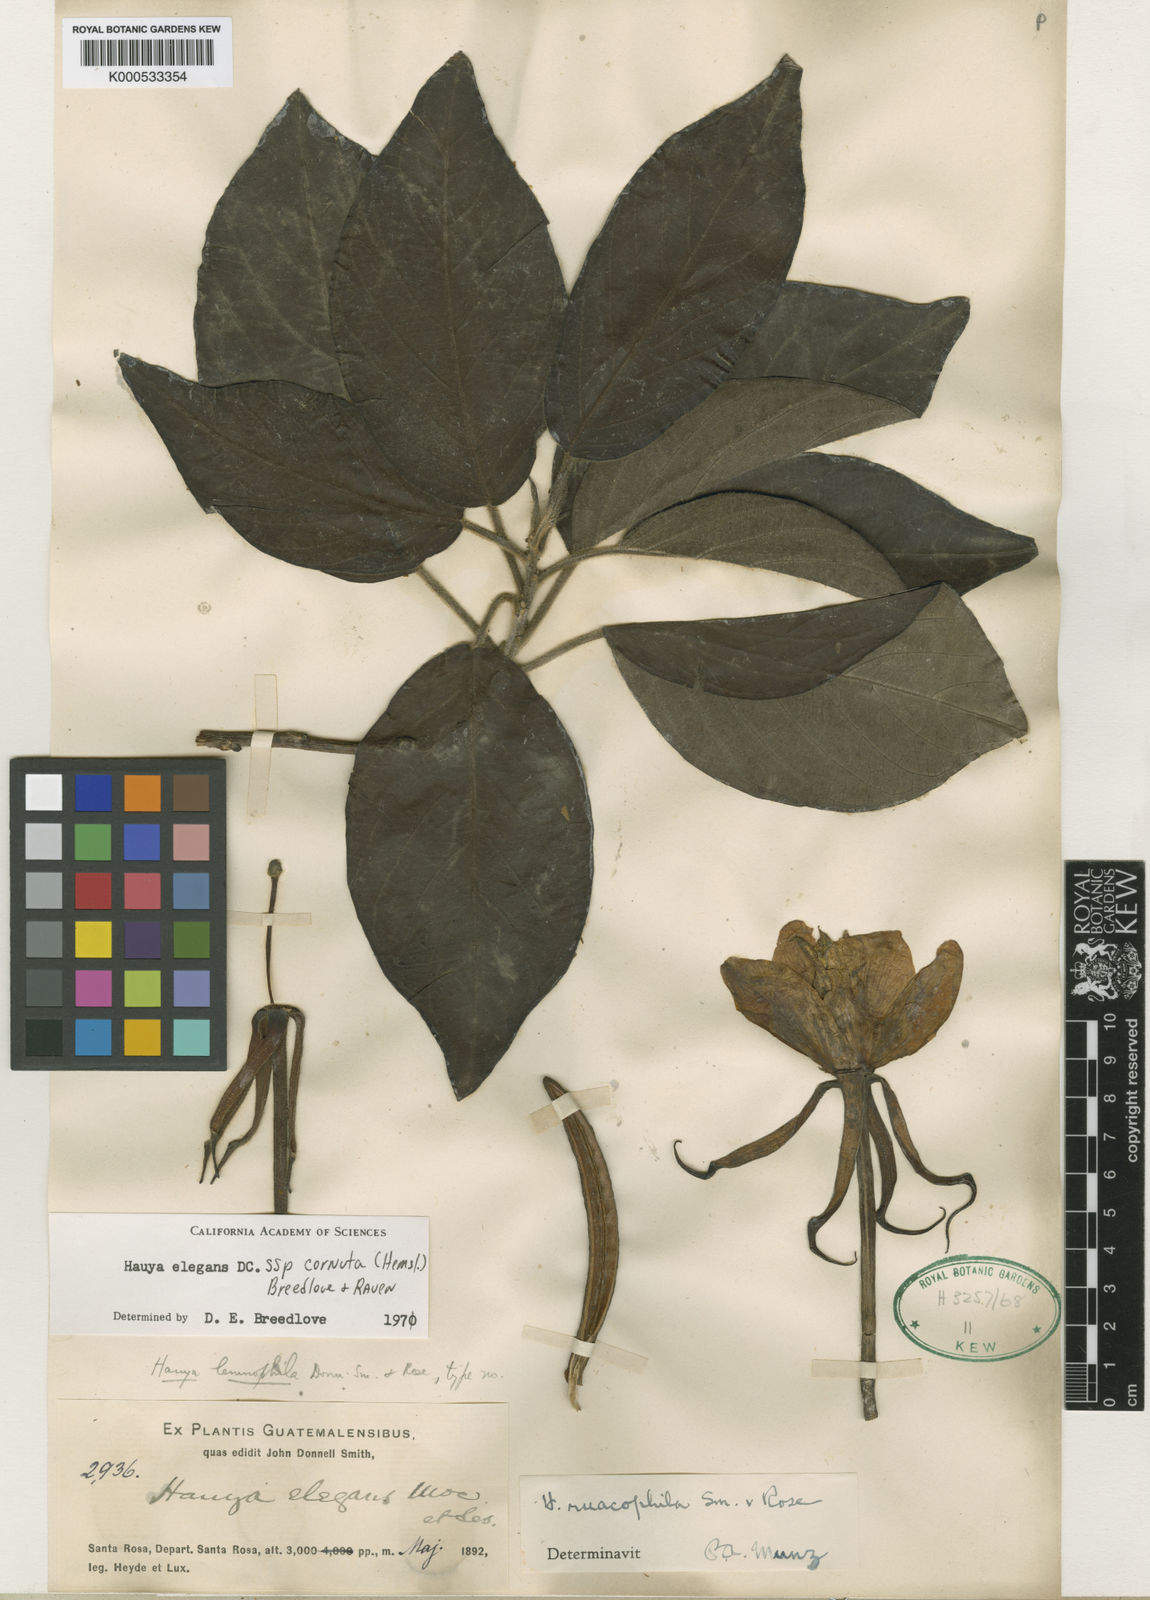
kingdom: Plantae
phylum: Tracheophyta
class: Magnoliopsida
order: Myrtales
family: Onagraceae
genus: Hauya
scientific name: Hauya elegans
